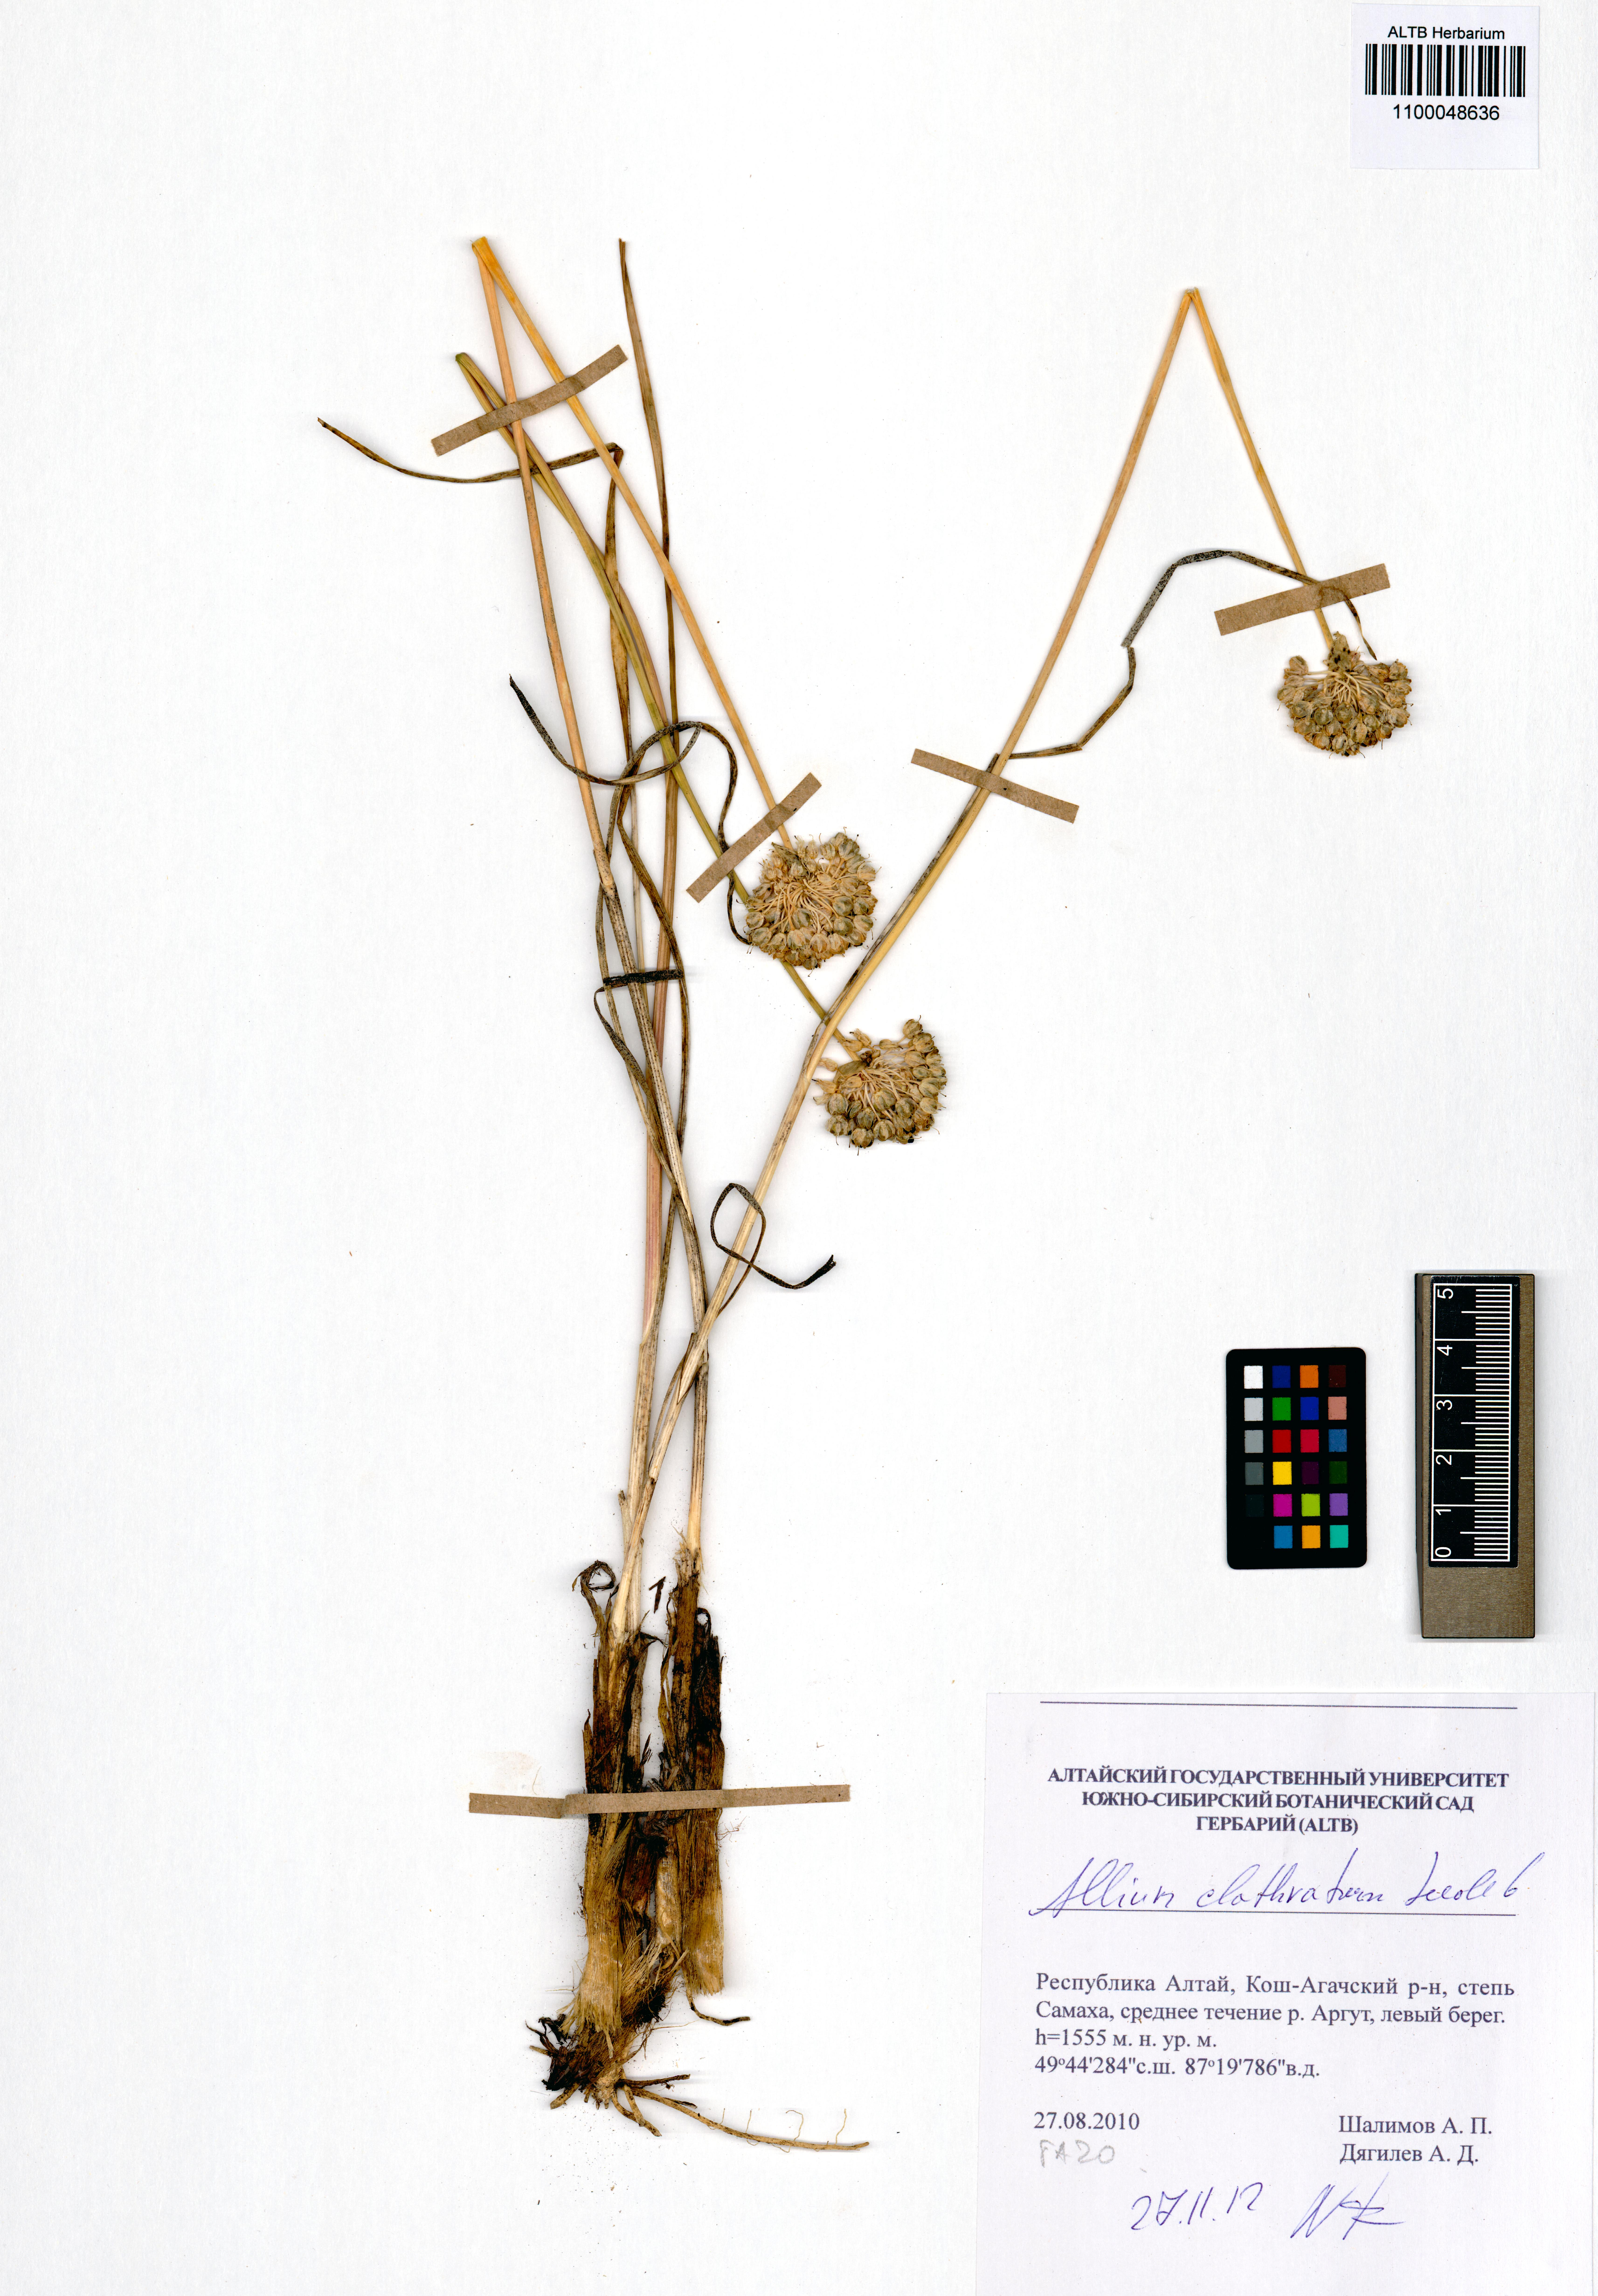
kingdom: Plantae
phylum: Tracheophyta
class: Liliopsida
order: Asparagales
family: Amaryllidaceae
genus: Allium
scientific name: Allium clathratum
